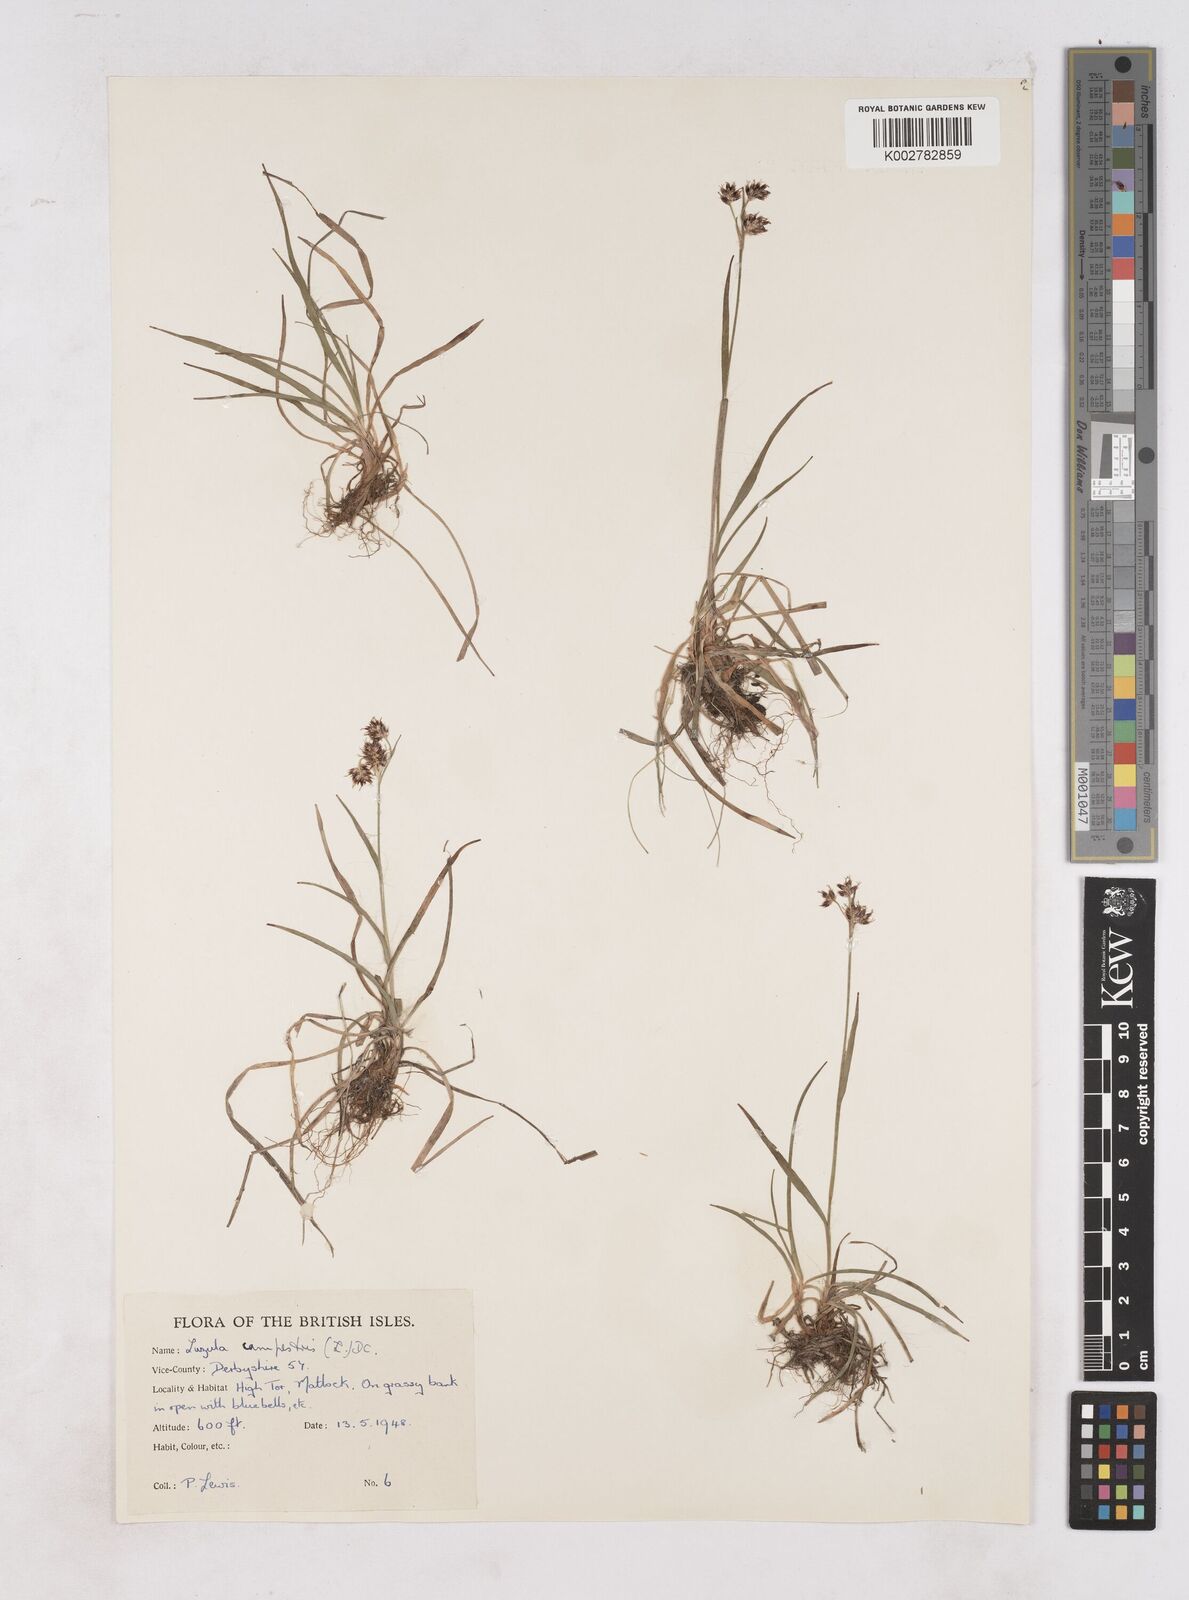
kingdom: Plantae
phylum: Tracheophyta
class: Liliopsida
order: Poales
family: Juncaceae
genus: Luzula
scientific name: Luzula campestris
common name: Field wood-rush
